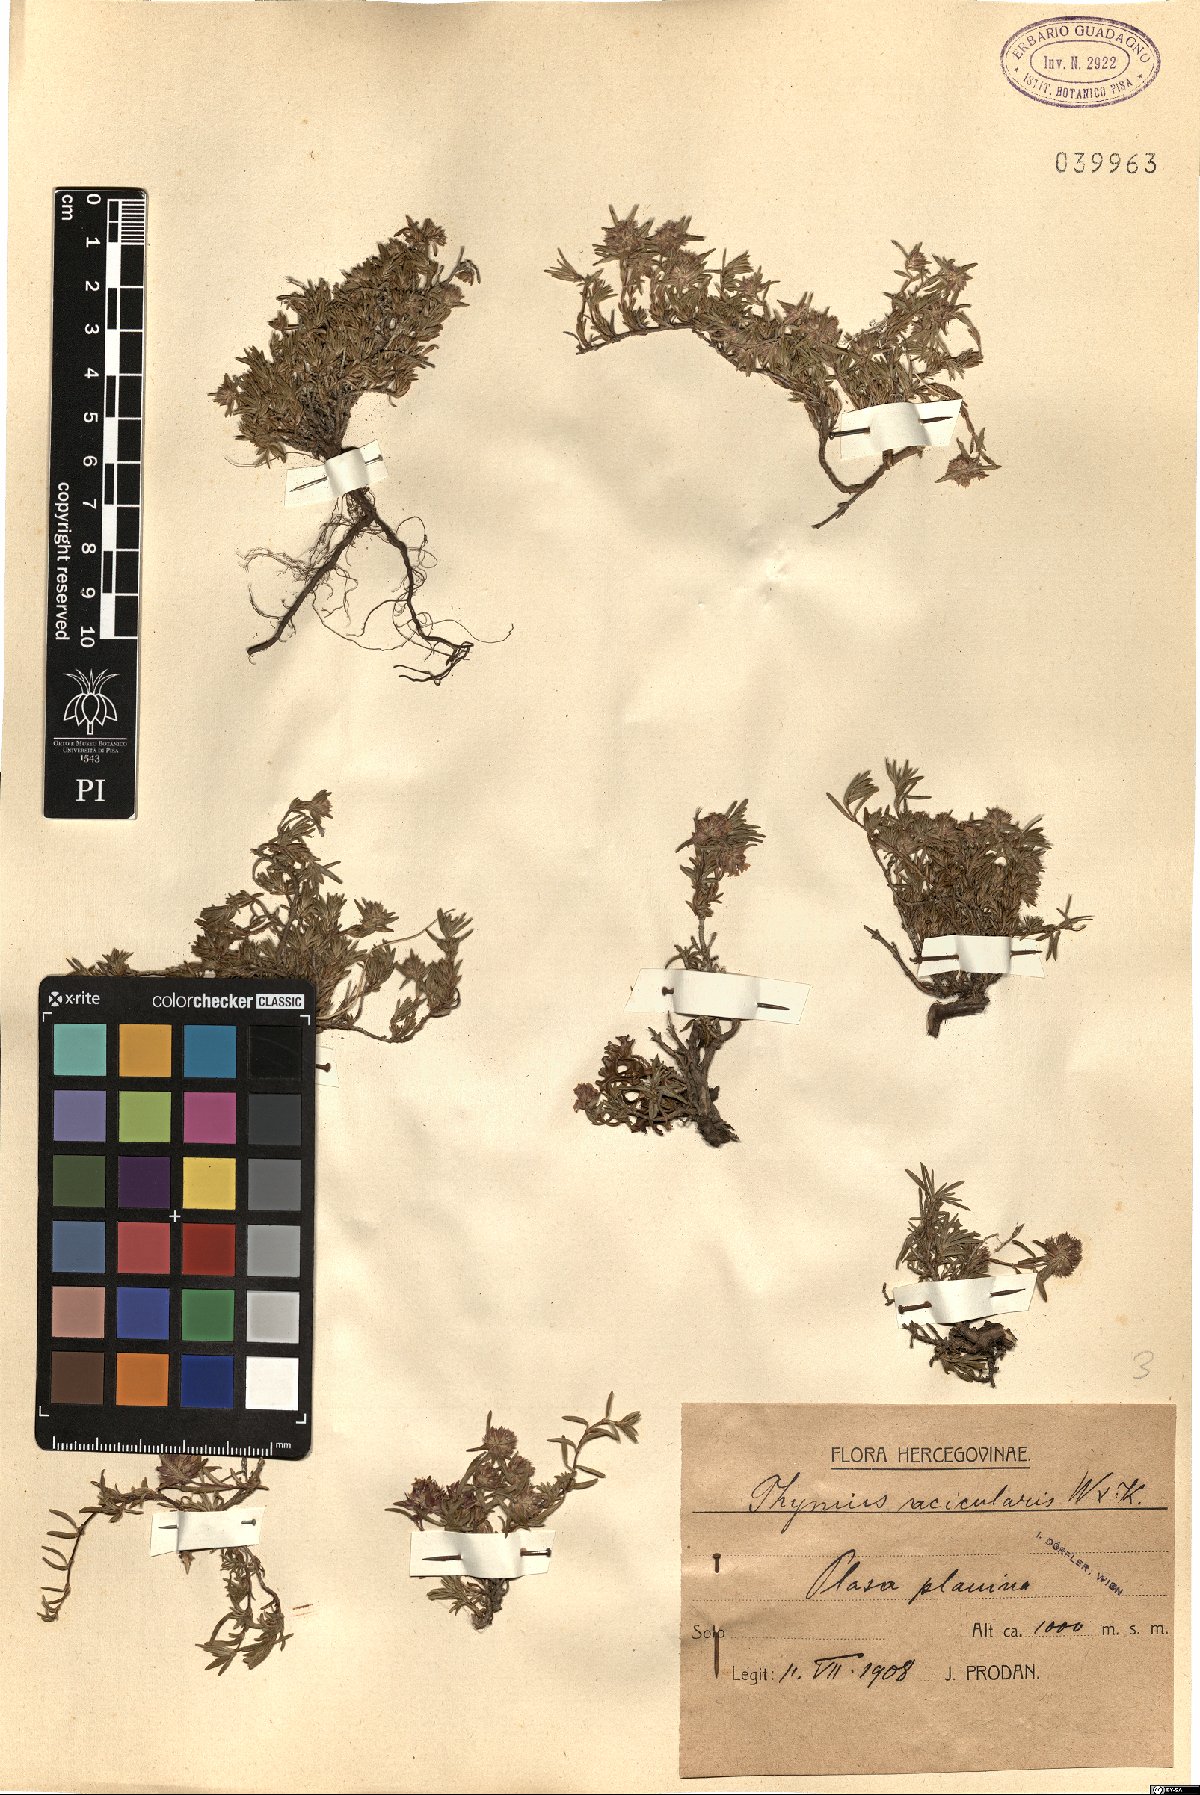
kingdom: Plantae
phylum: Tracheophyta
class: Magnoliopsida
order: Lamiales
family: Lamiaceae
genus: Thymus
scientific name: Thymus striatus
